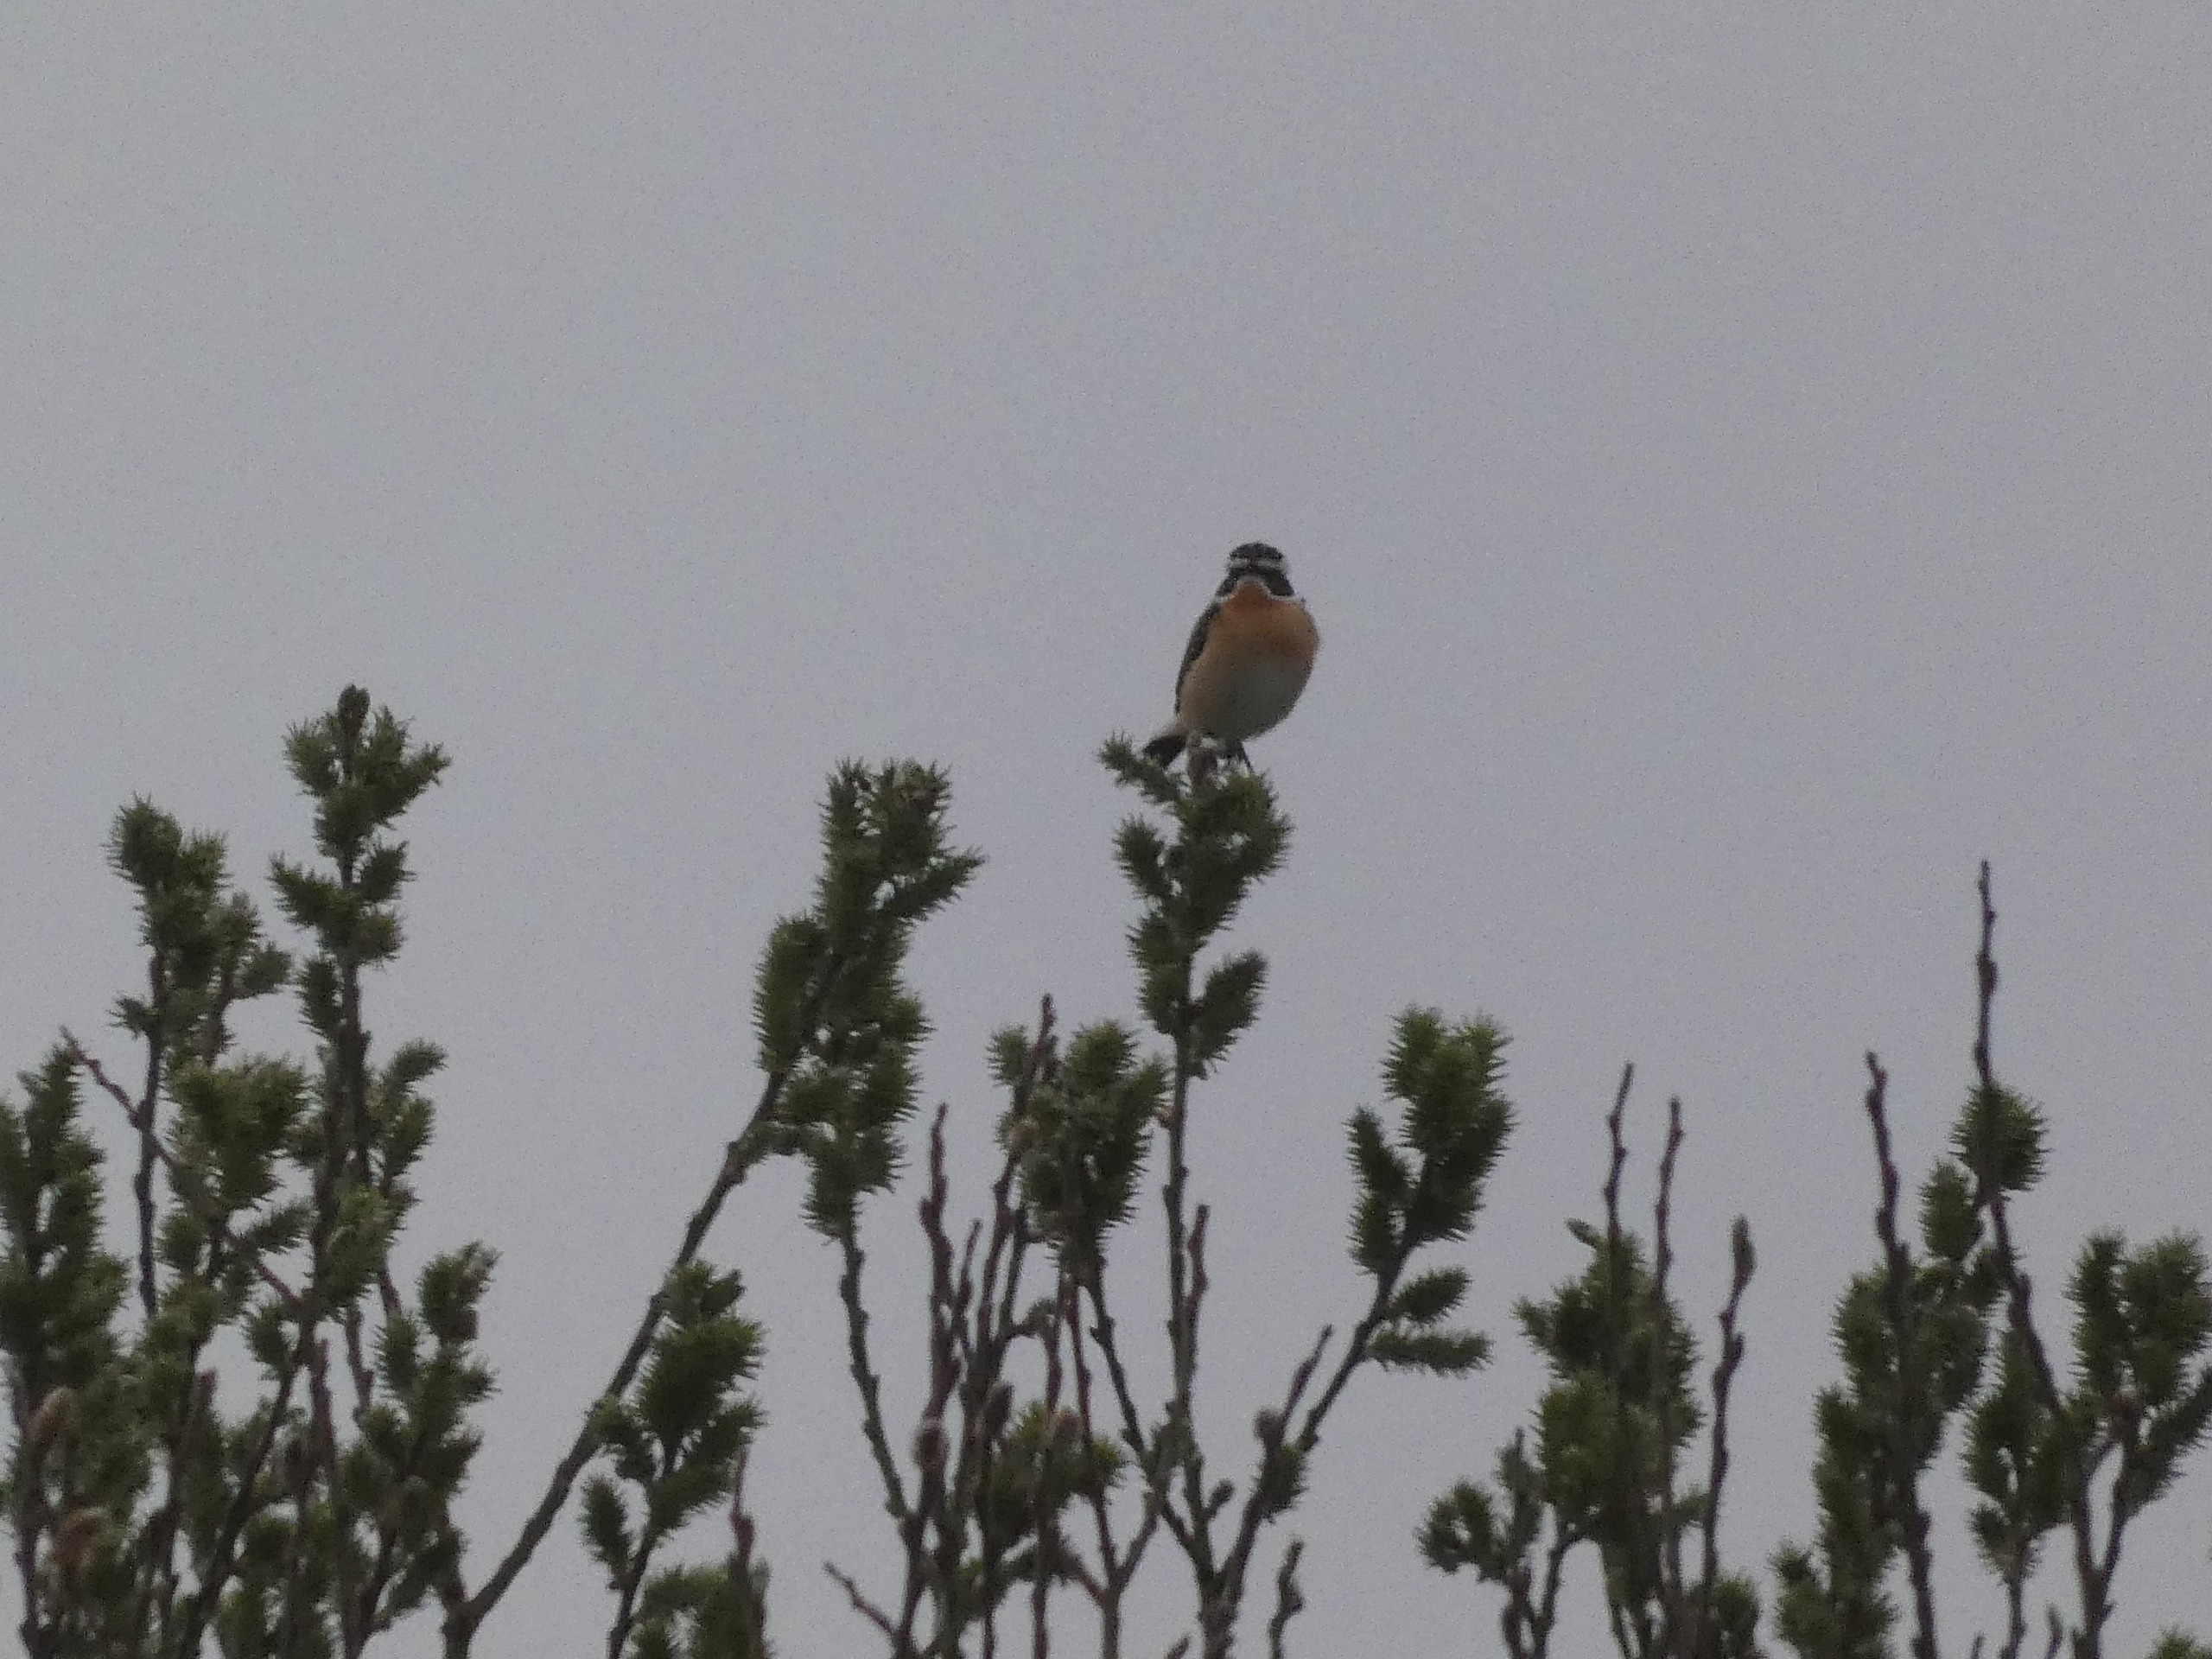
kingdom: Animalia
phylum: Chordata
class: Aves
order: Passeriformes
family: Muscicapidae
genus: Saxicola
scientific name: Saxicola rubetra
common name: Bynkefugl
